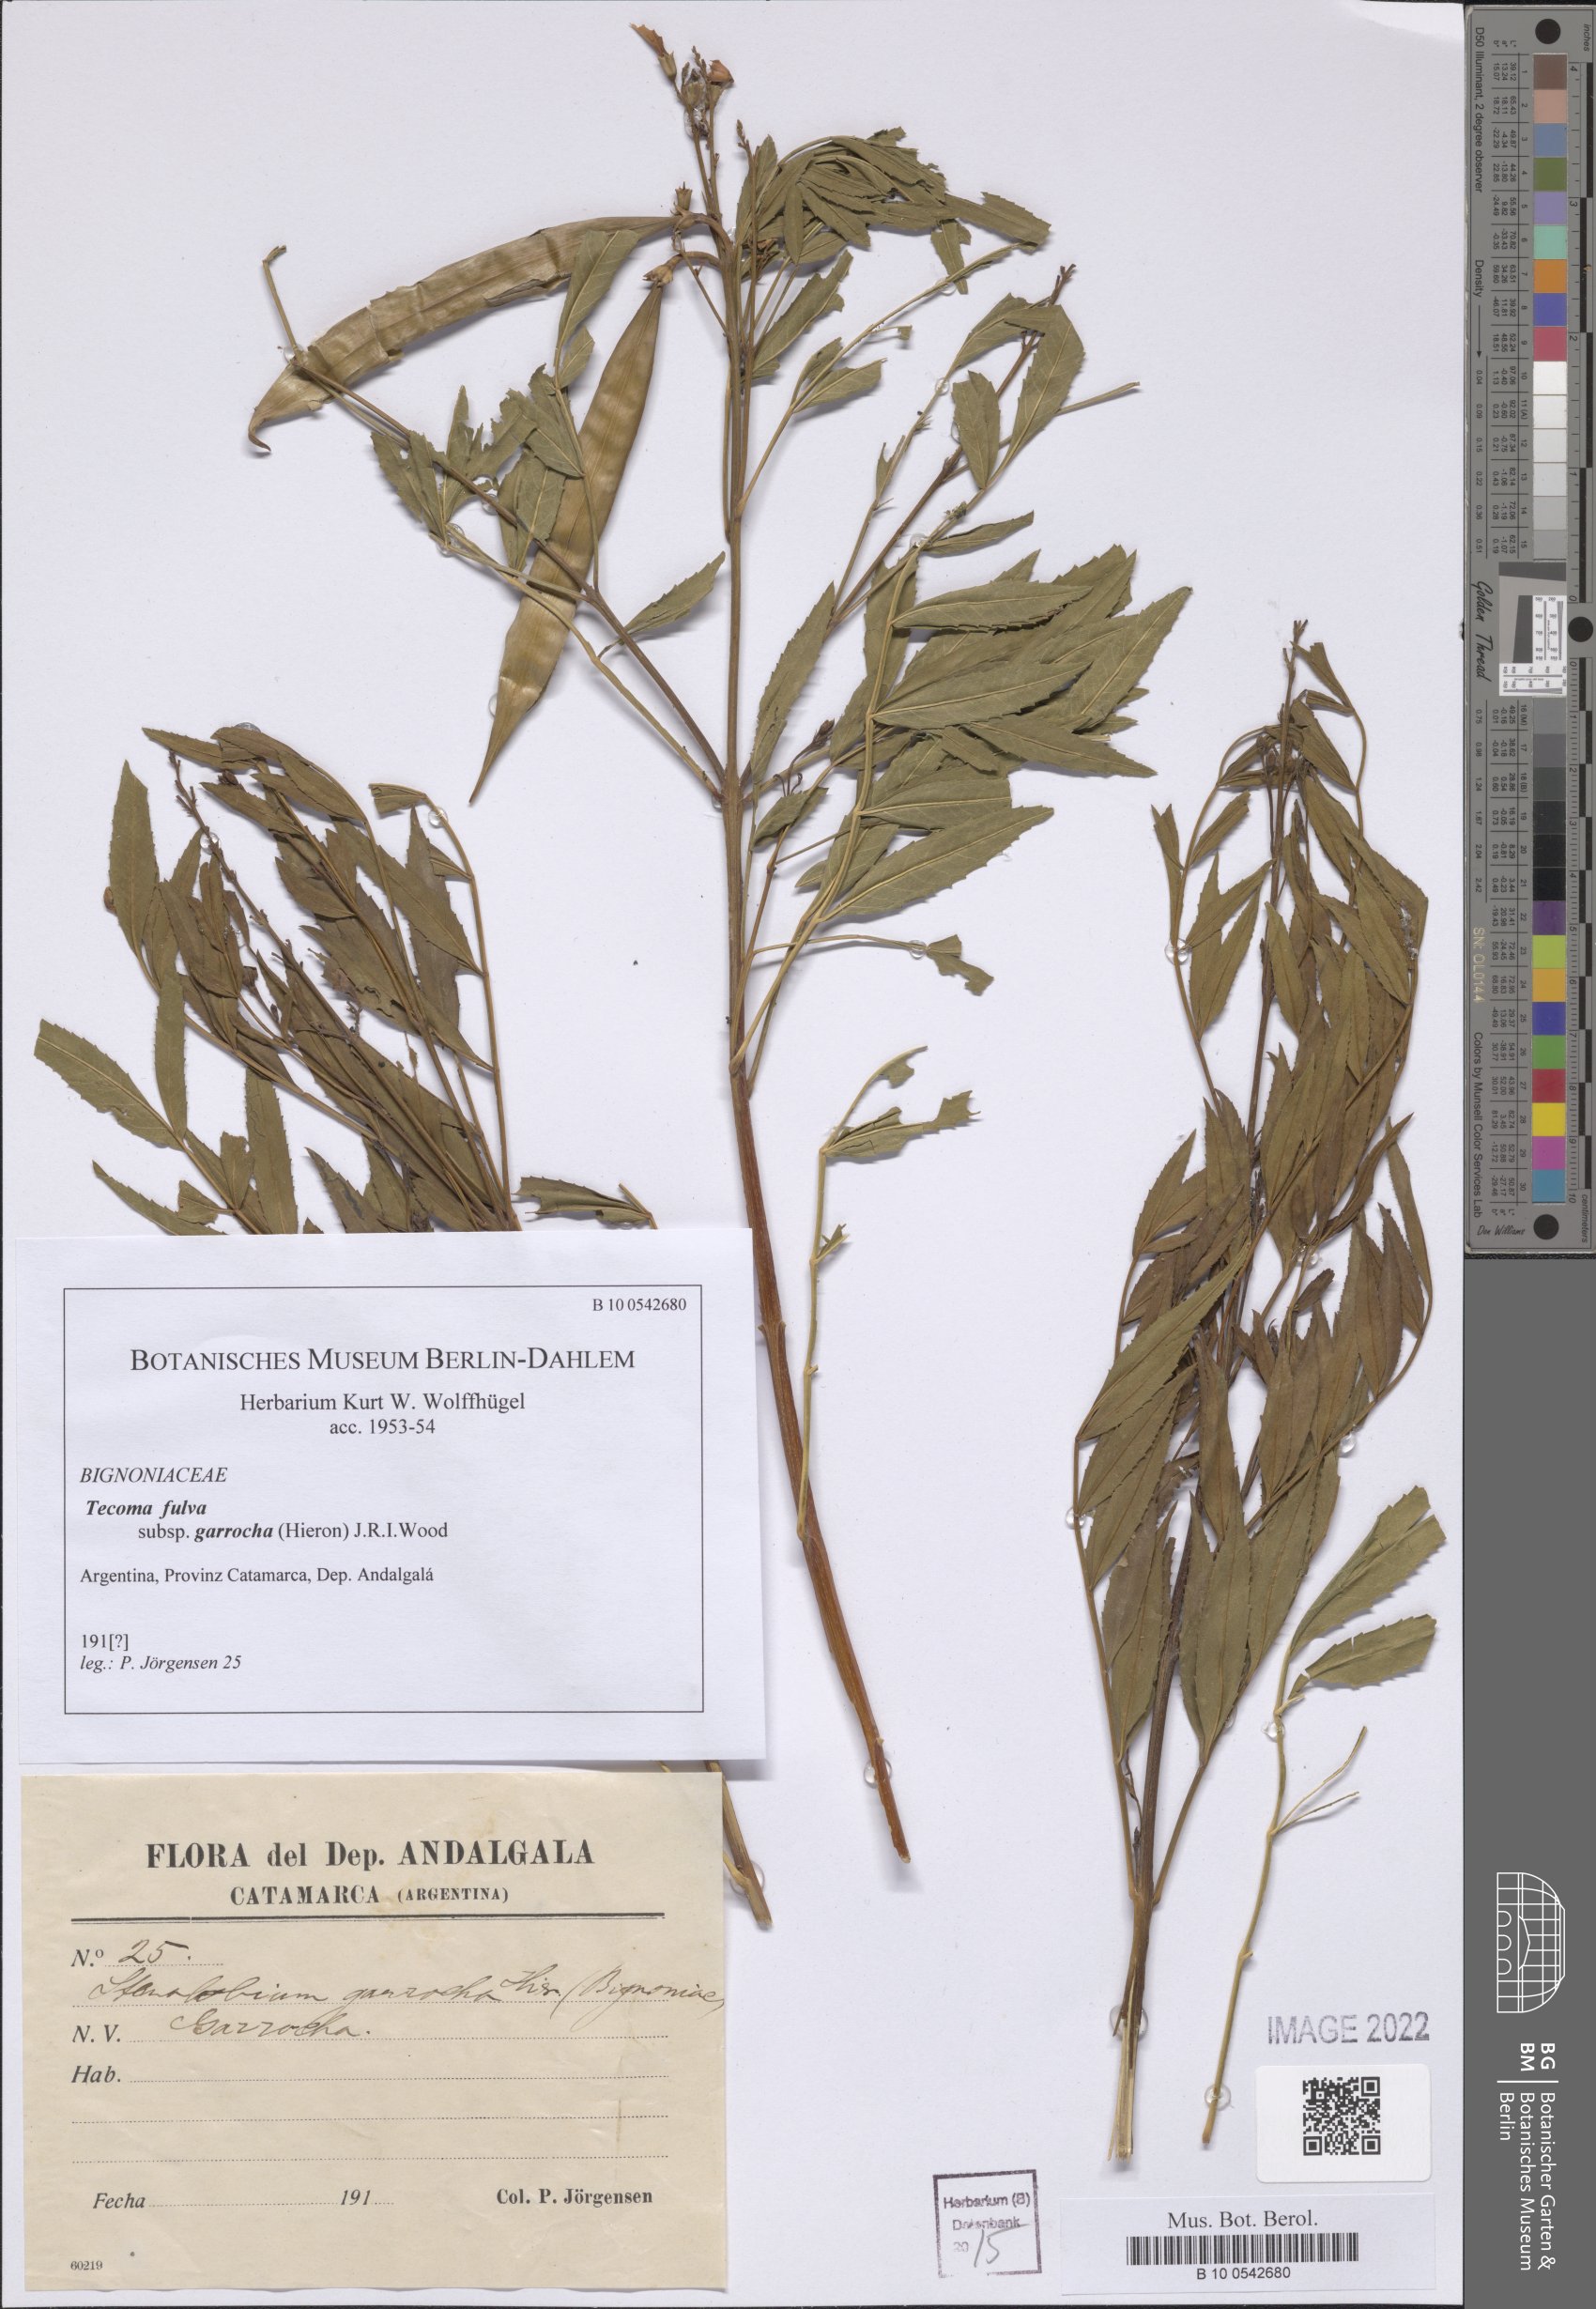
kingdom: Plantae
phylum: Tracheophyta
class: Magnoliopsida
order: Lamiales
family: Bignoniaceae
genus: Tecoma
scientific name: Tecoma fulva
